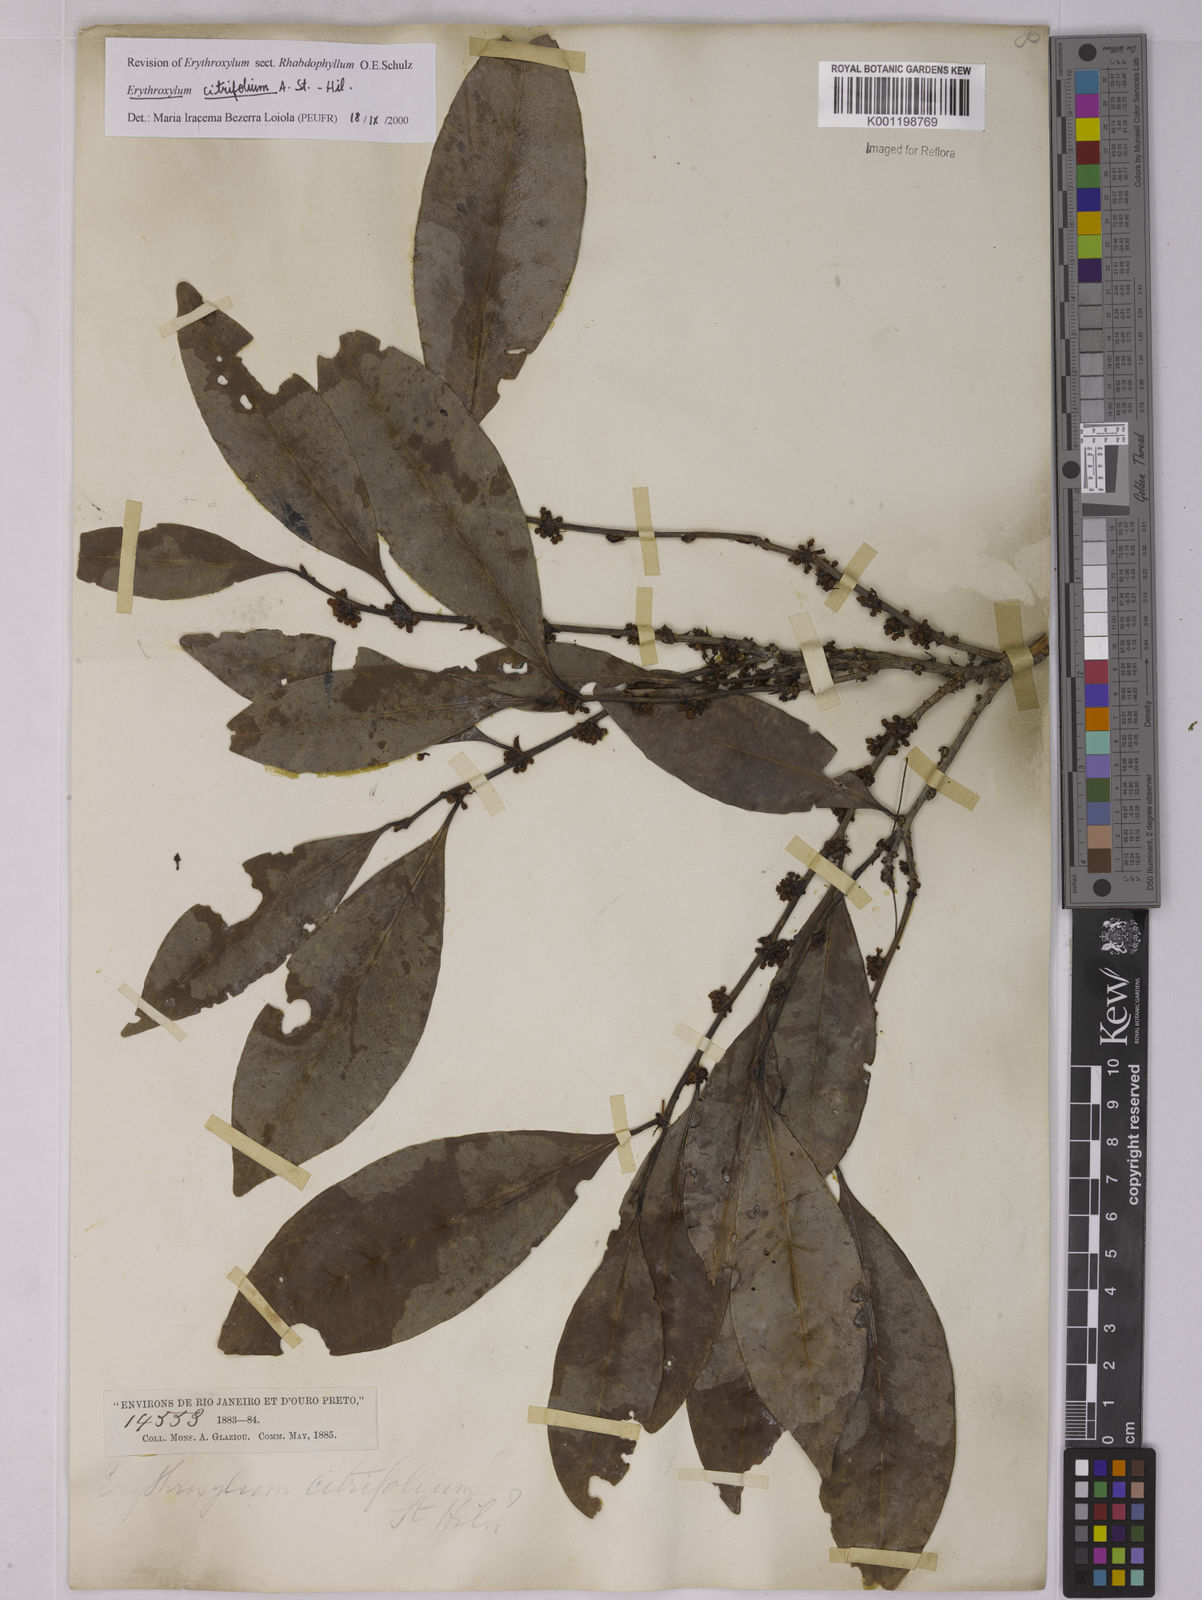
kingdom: Plantae
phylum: Tracheophyta
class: Magnoliopsida
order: Malpighiales
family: Erythroxylaceae
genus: Erythroxylum
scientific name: Erythroxylum citrifolium
